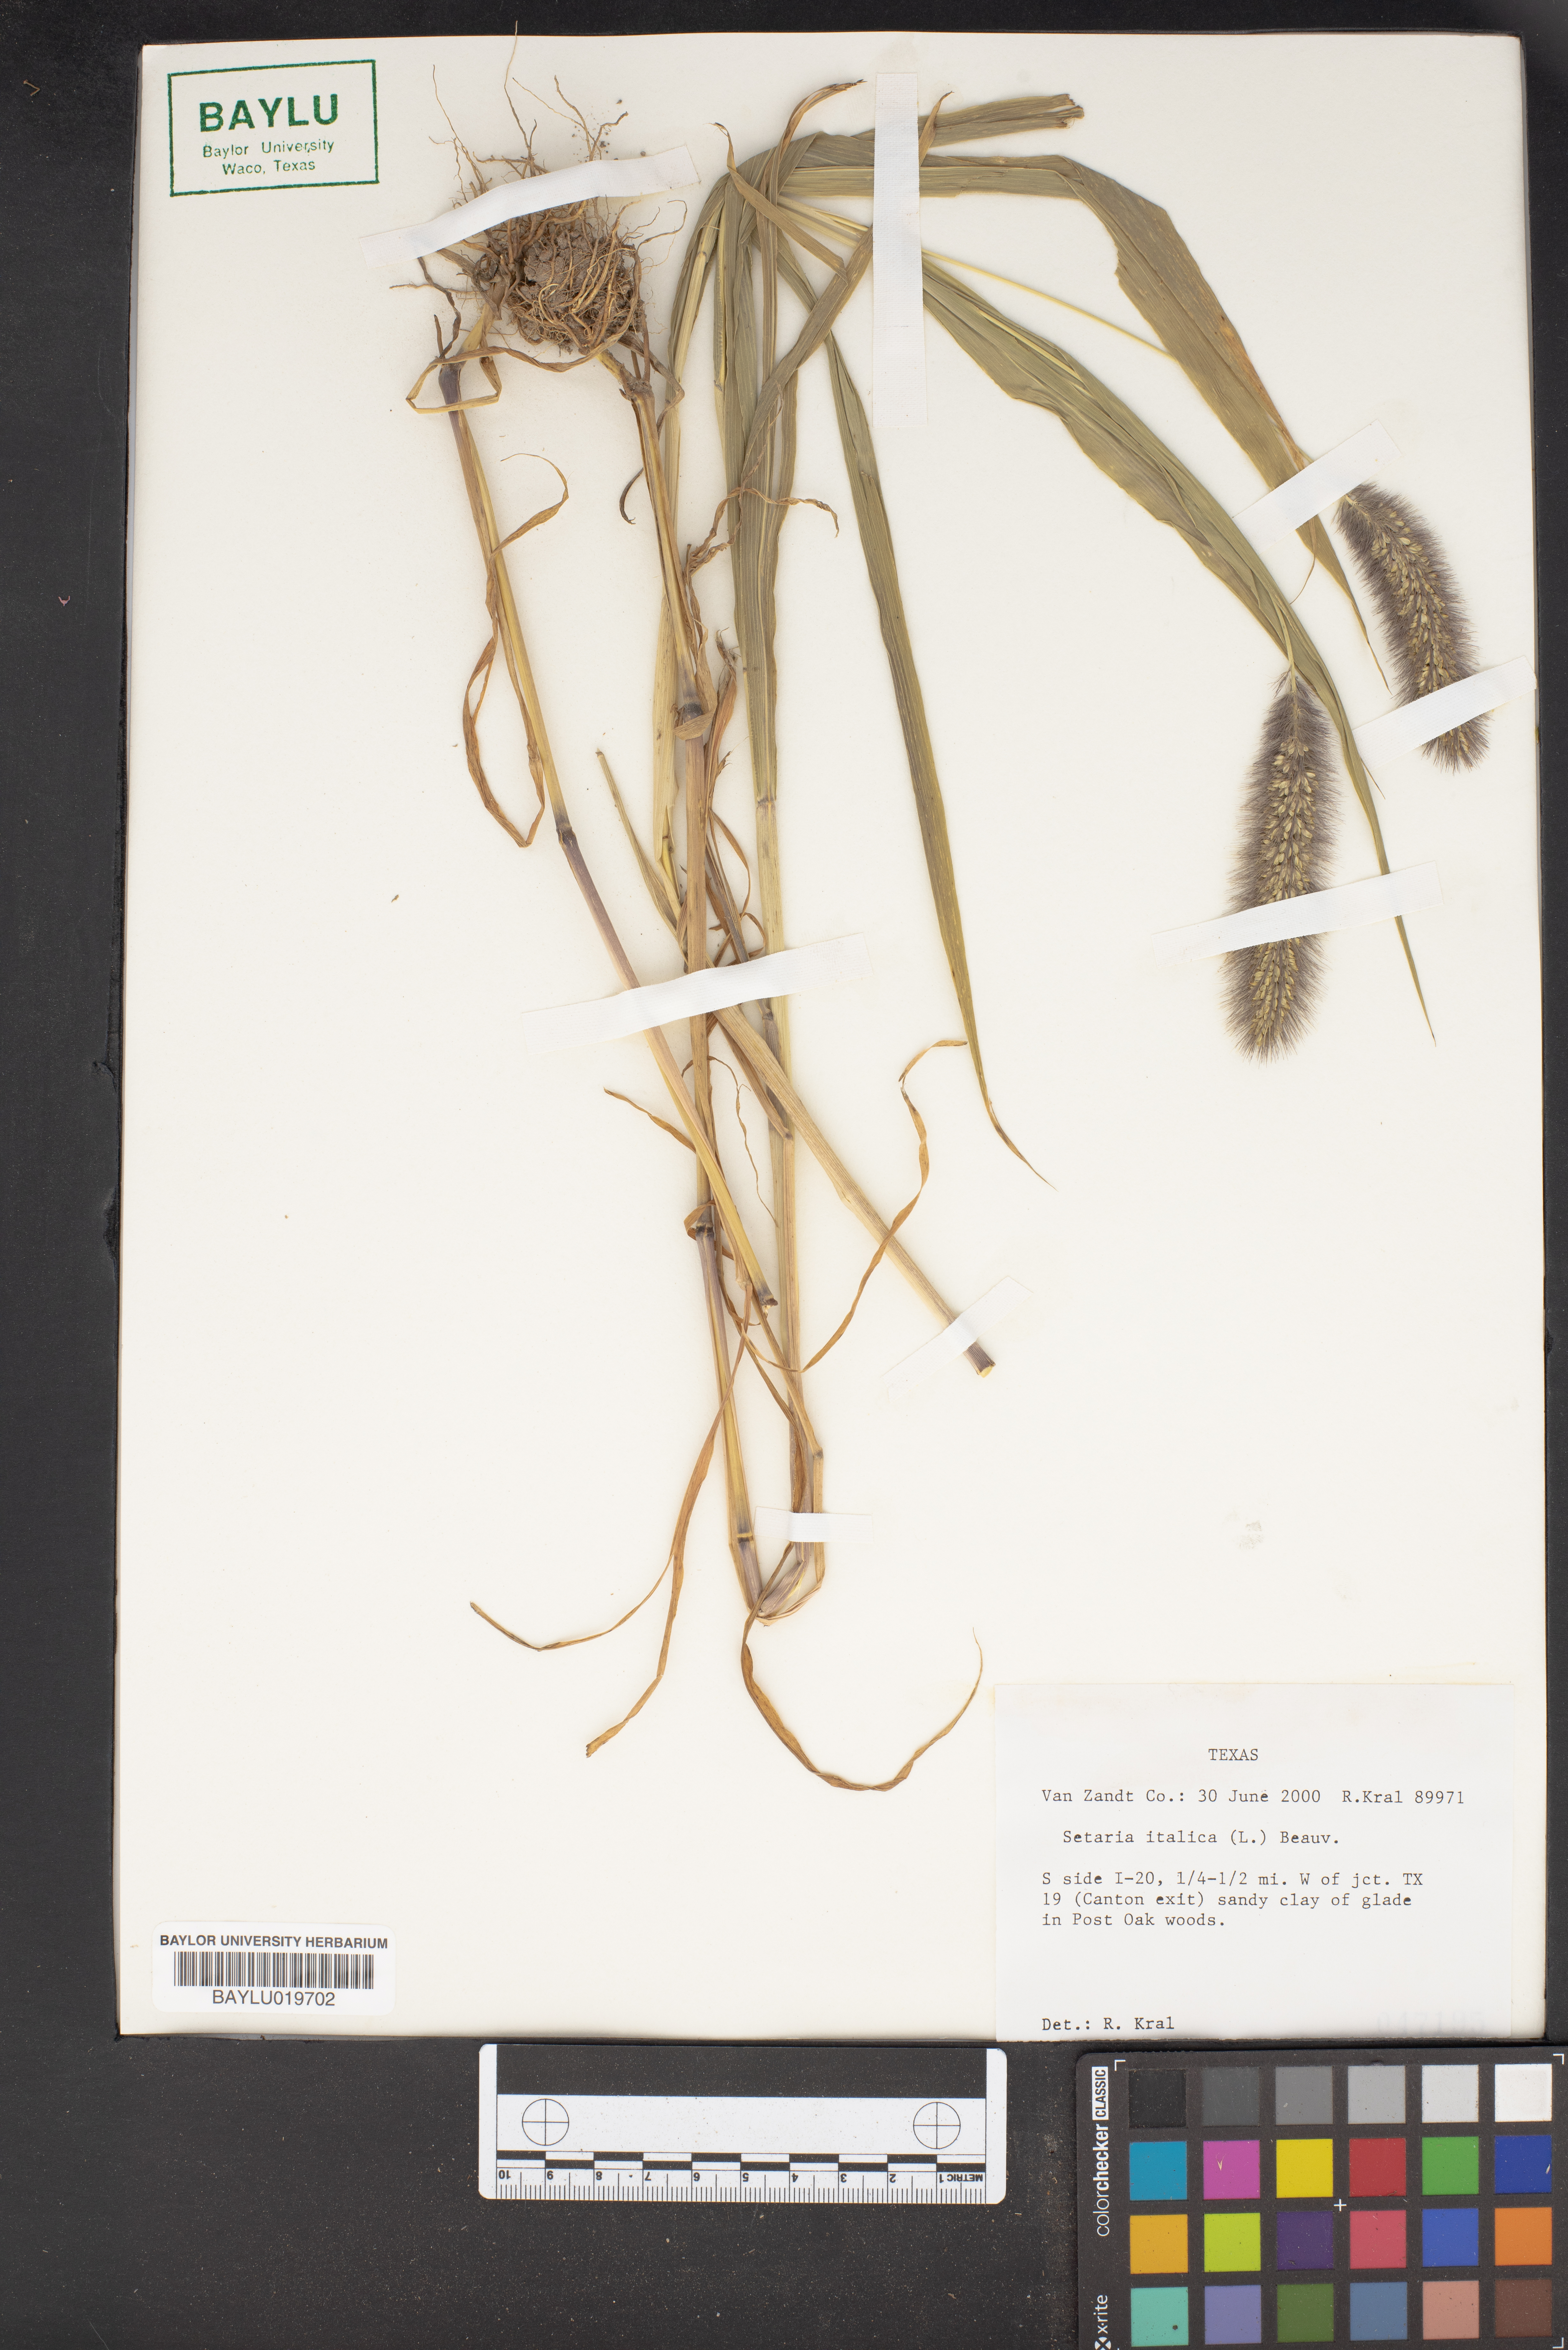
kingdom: Plantae
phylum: Tracheophyta
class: Liliopsida
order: Poales
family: Poaceae
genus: Setaria
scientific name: Setaria italica
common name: Foxtail bristle-grass
